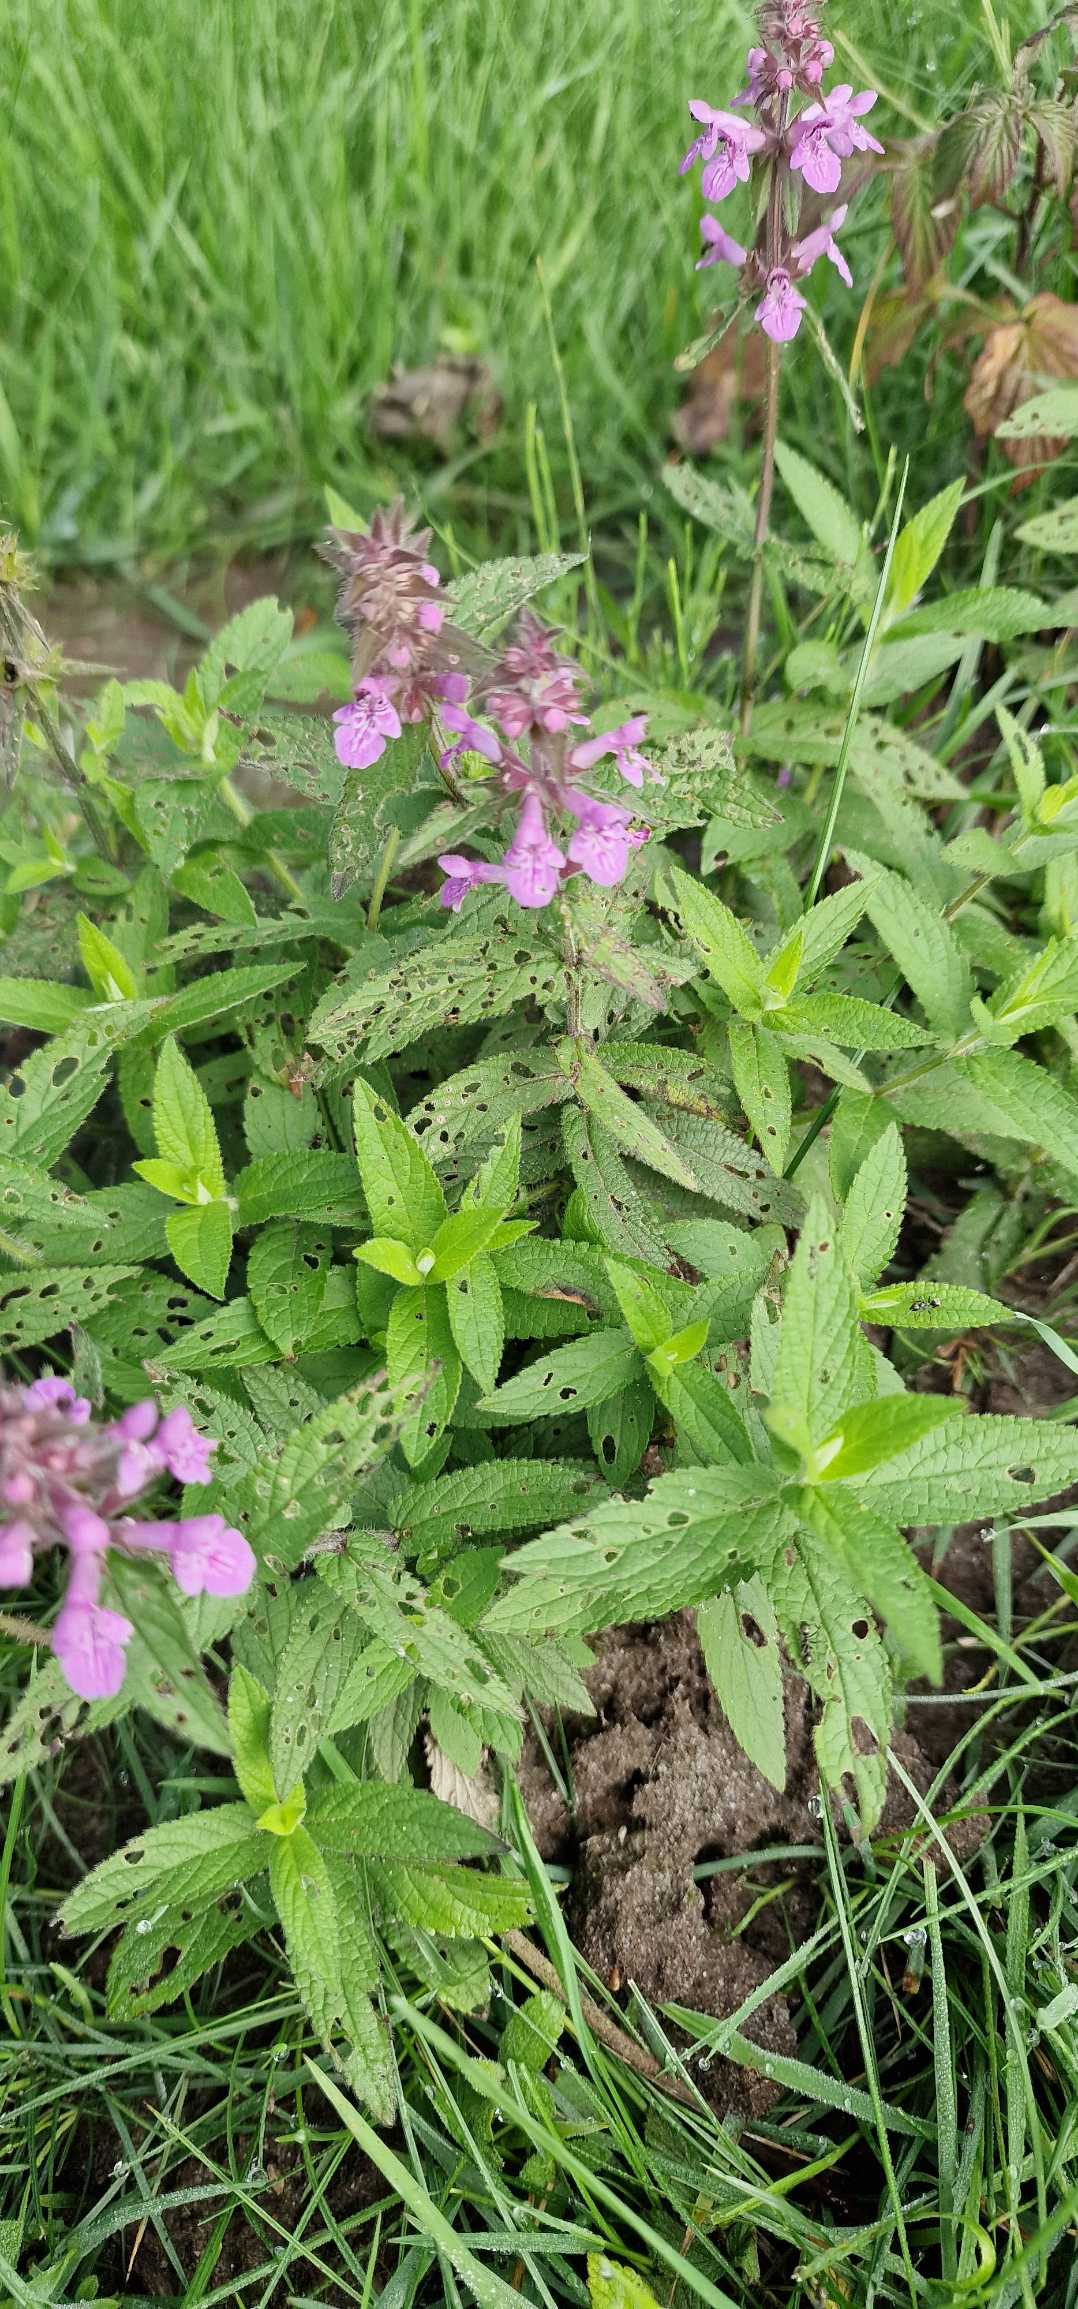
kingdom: Plantae
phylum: Tracheophyta
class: Magnoliopsida
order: Lamiales
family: Lamiaceae
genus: Stachys
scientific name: Stachys palustris
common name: Kær-galtetand
